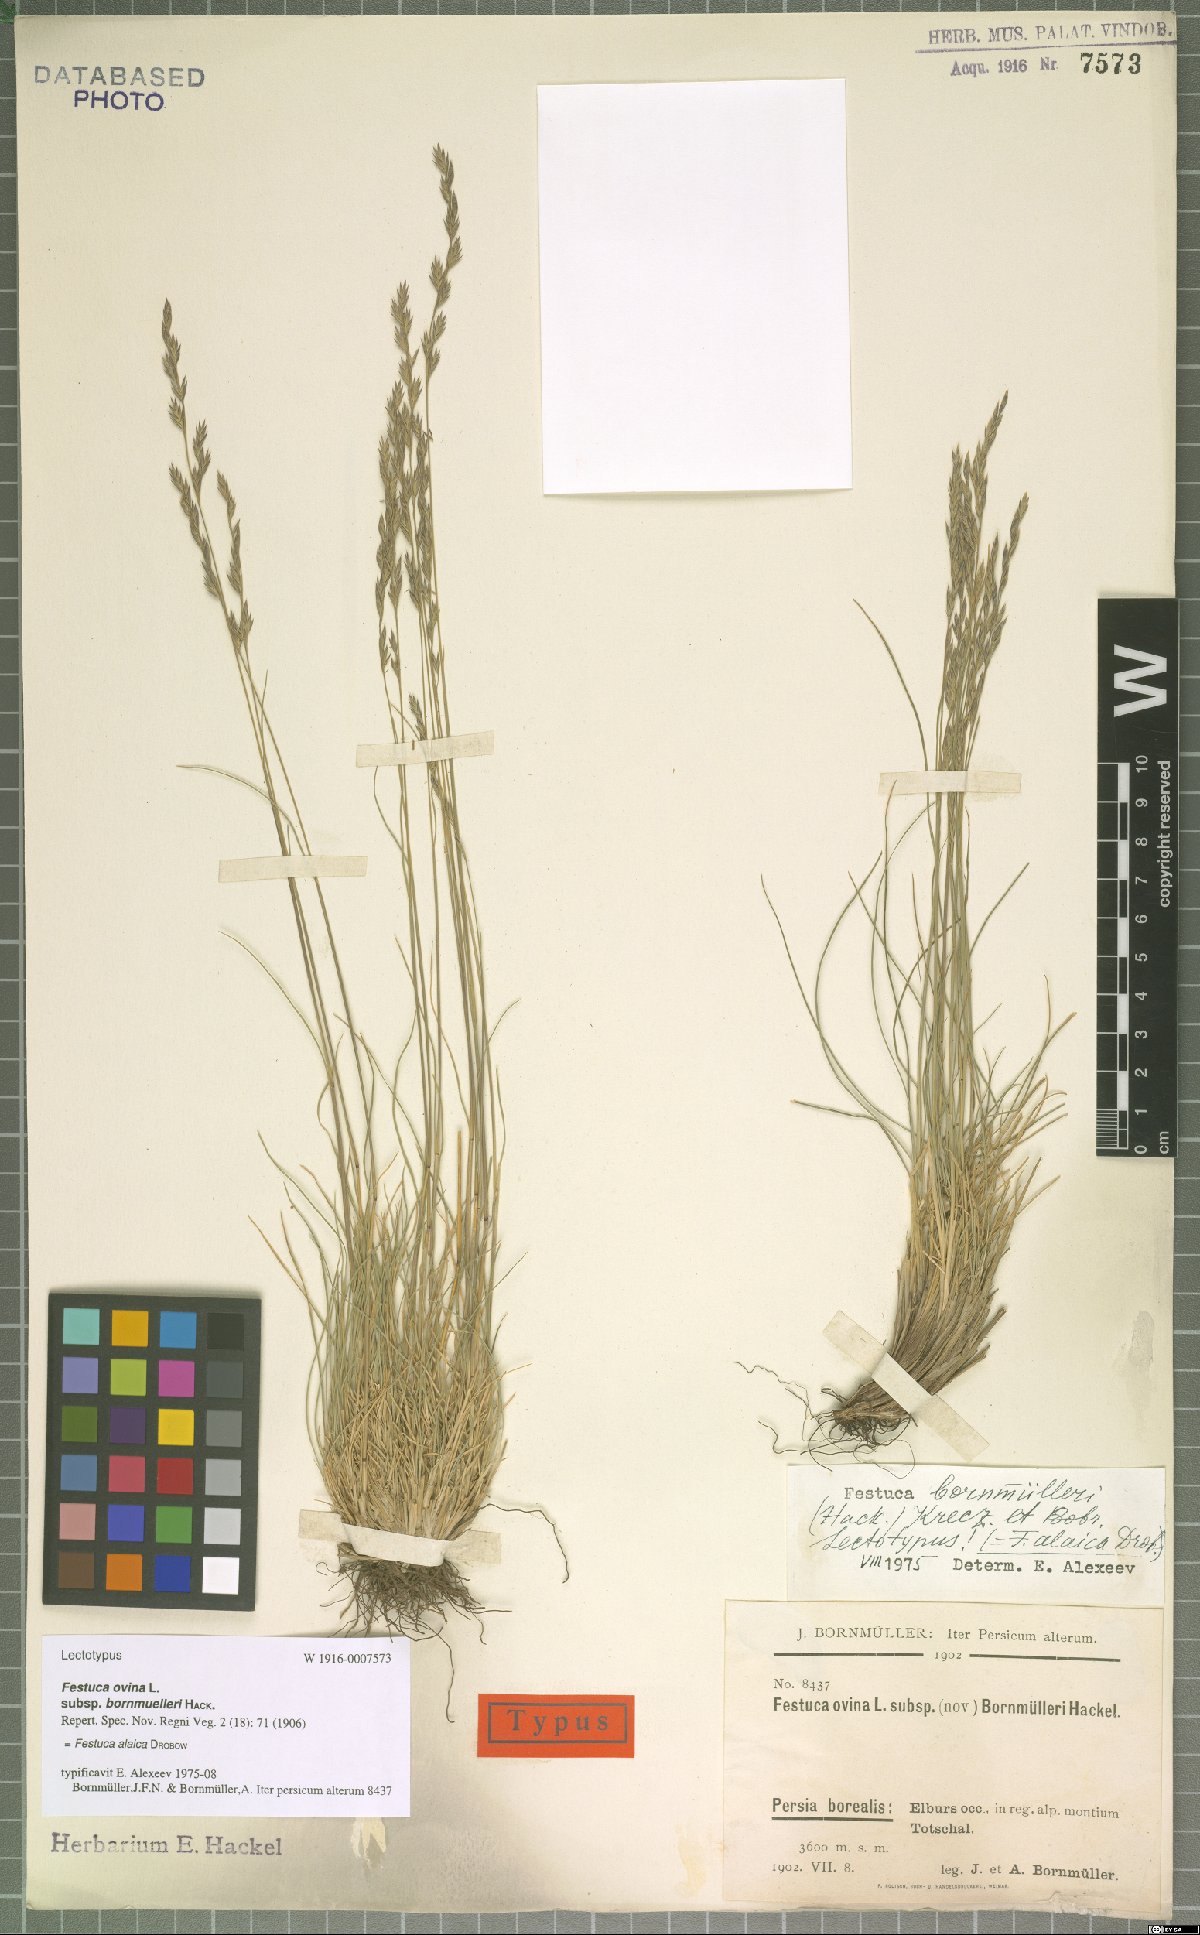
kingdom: Plantae
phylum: Tracheophyta
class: Liliopsida
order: Poales
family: Poaceae
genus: Festuca
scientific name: Festuca alaica
